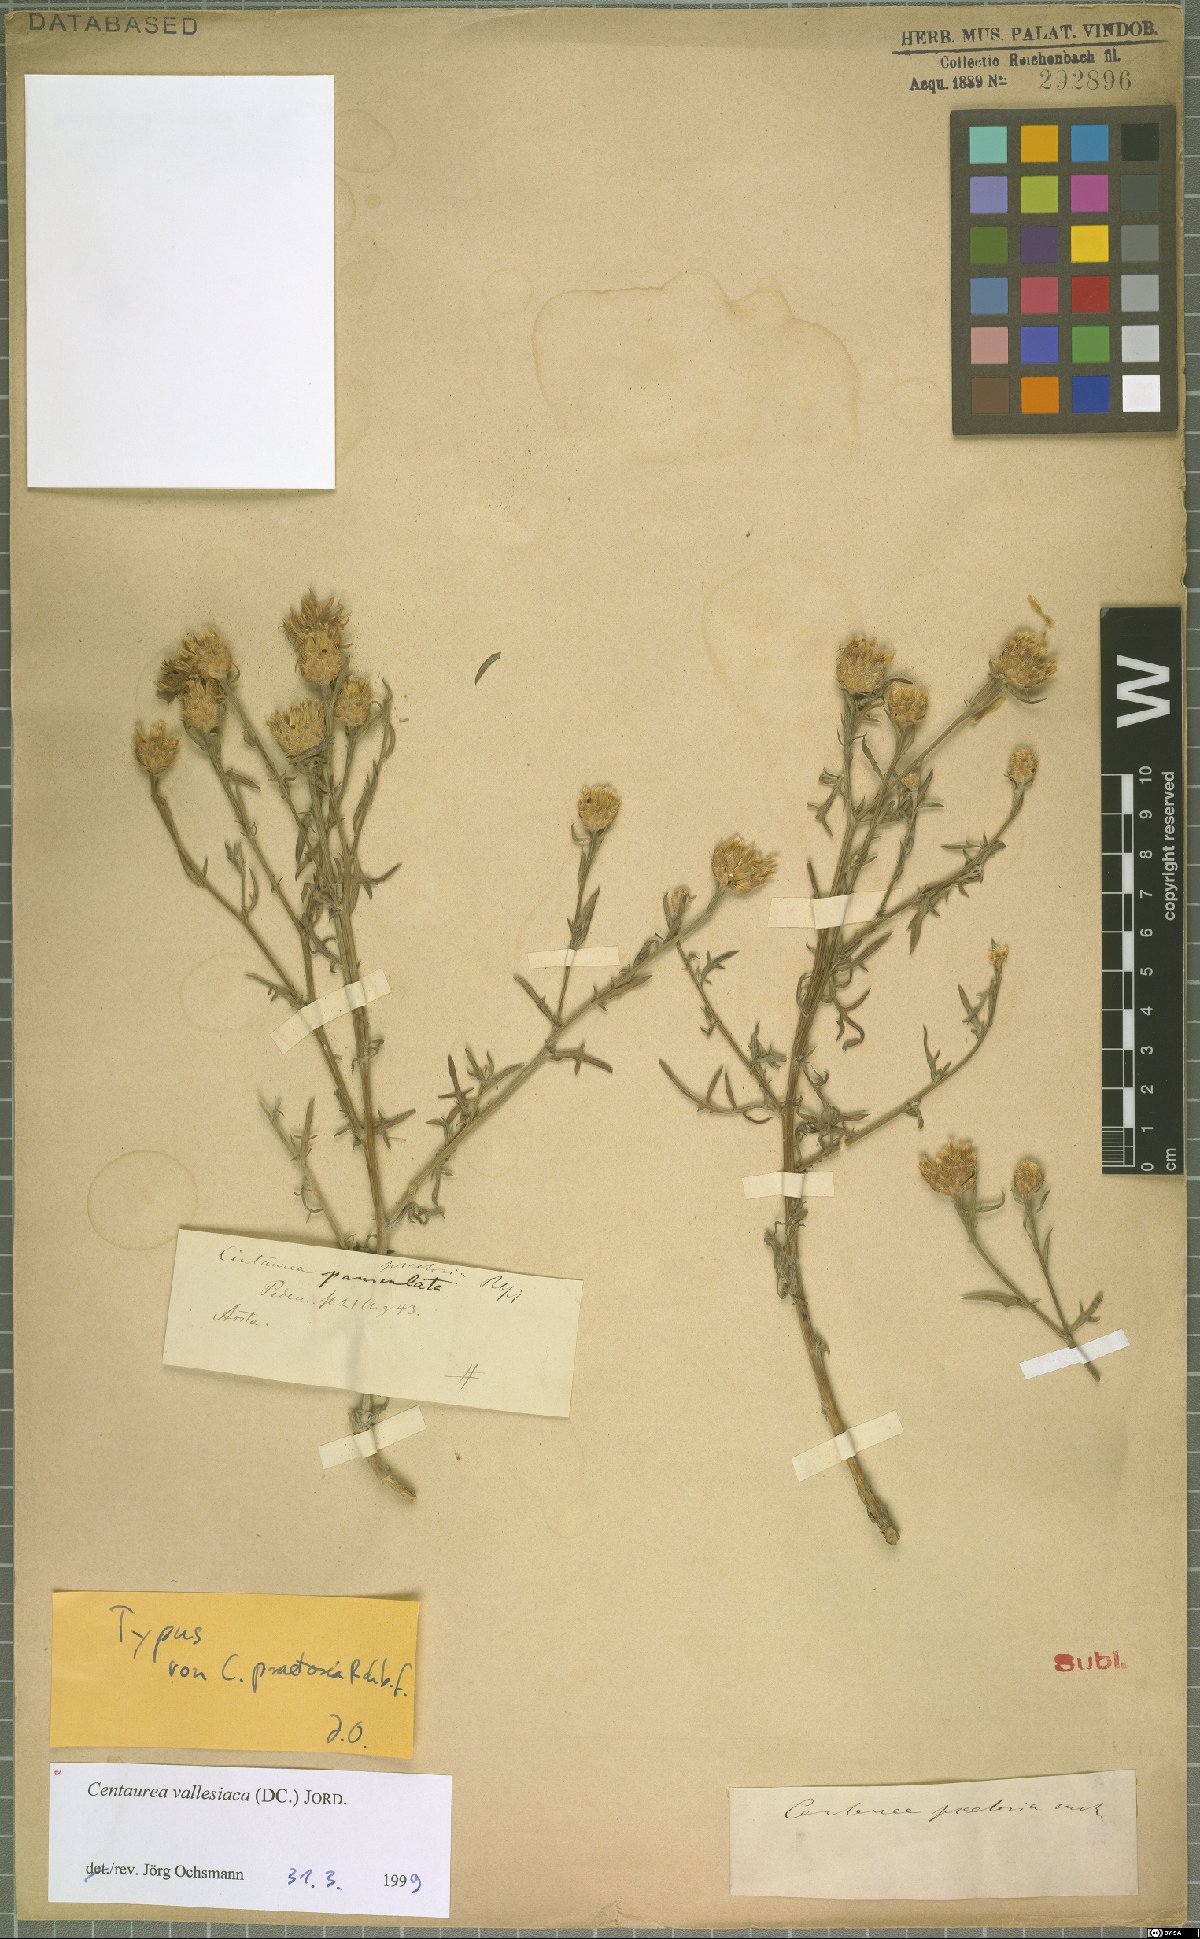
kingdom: Plantae
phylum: Tracheophyta
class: Magnoliopsida
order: Asterales
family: Asteraceae
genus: Centaurea
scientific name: Centaurea valesiaca
